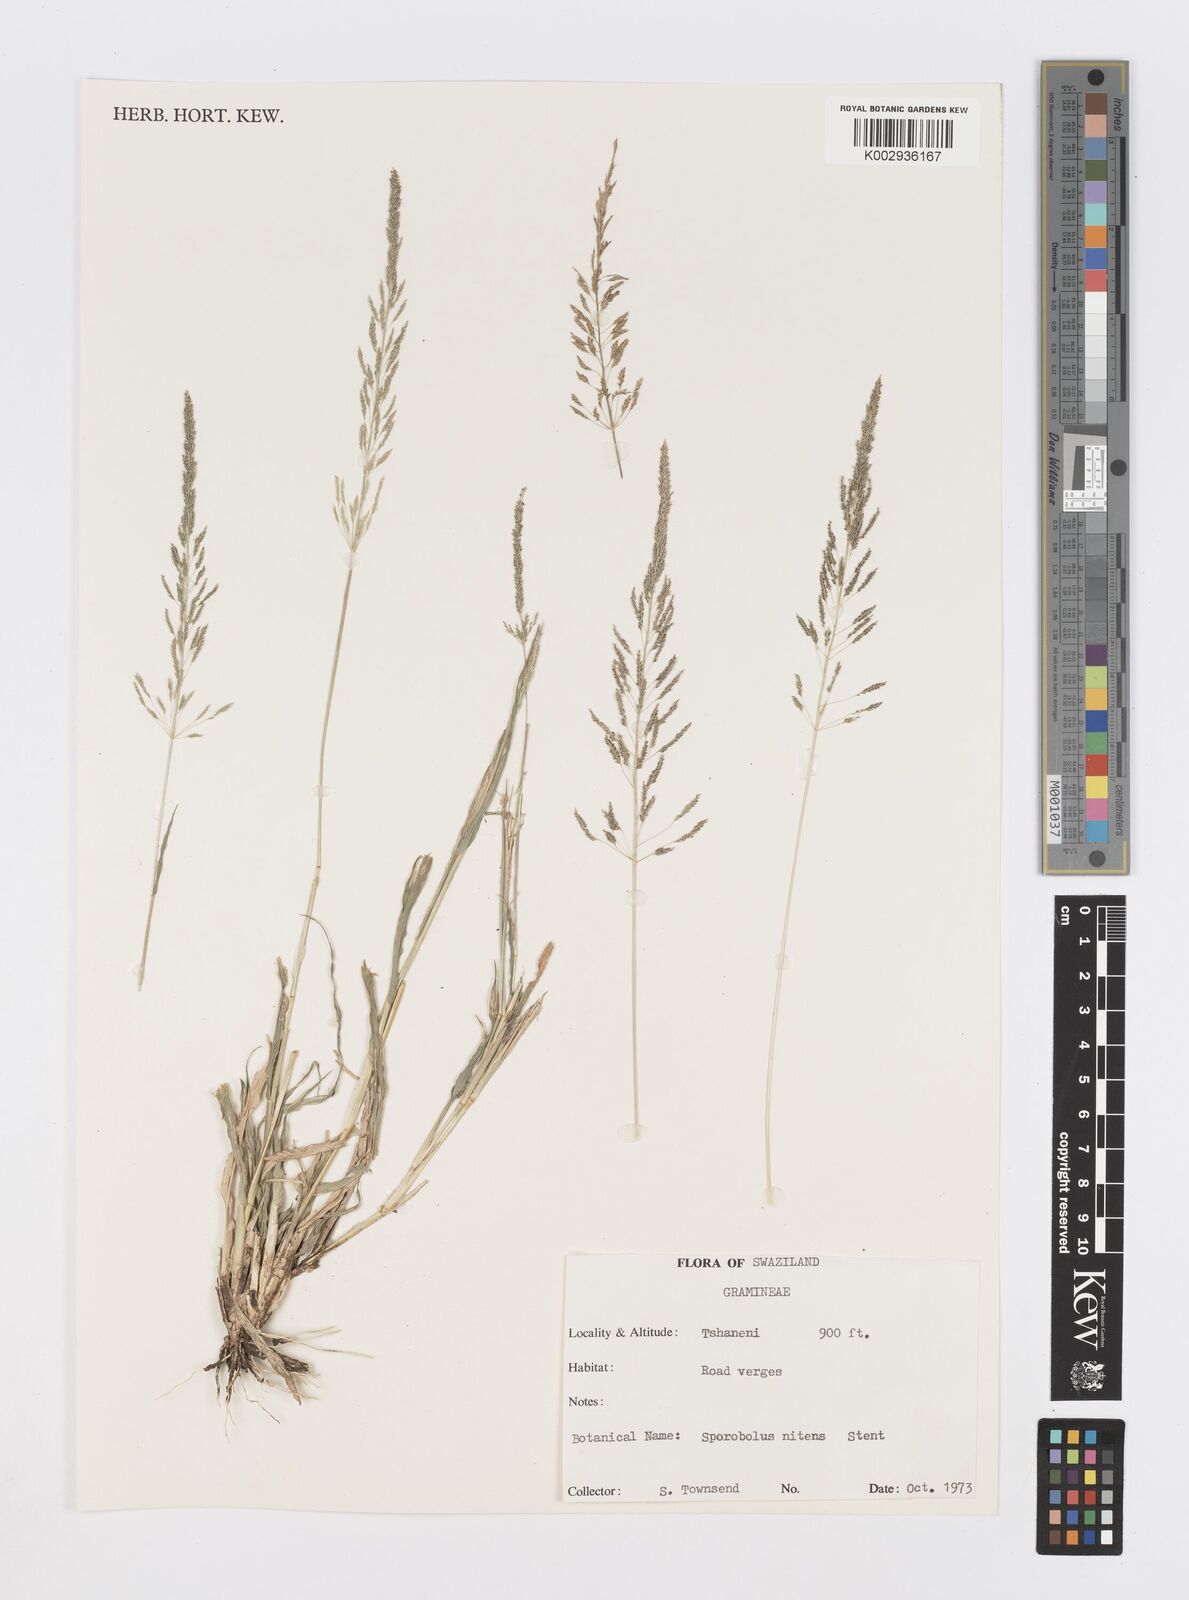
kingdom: Plantae
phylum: Tracheophyta
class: Liliopsida
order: Poales
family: Poaceae
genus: Sporobolus
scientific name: Sporobolus nitens
